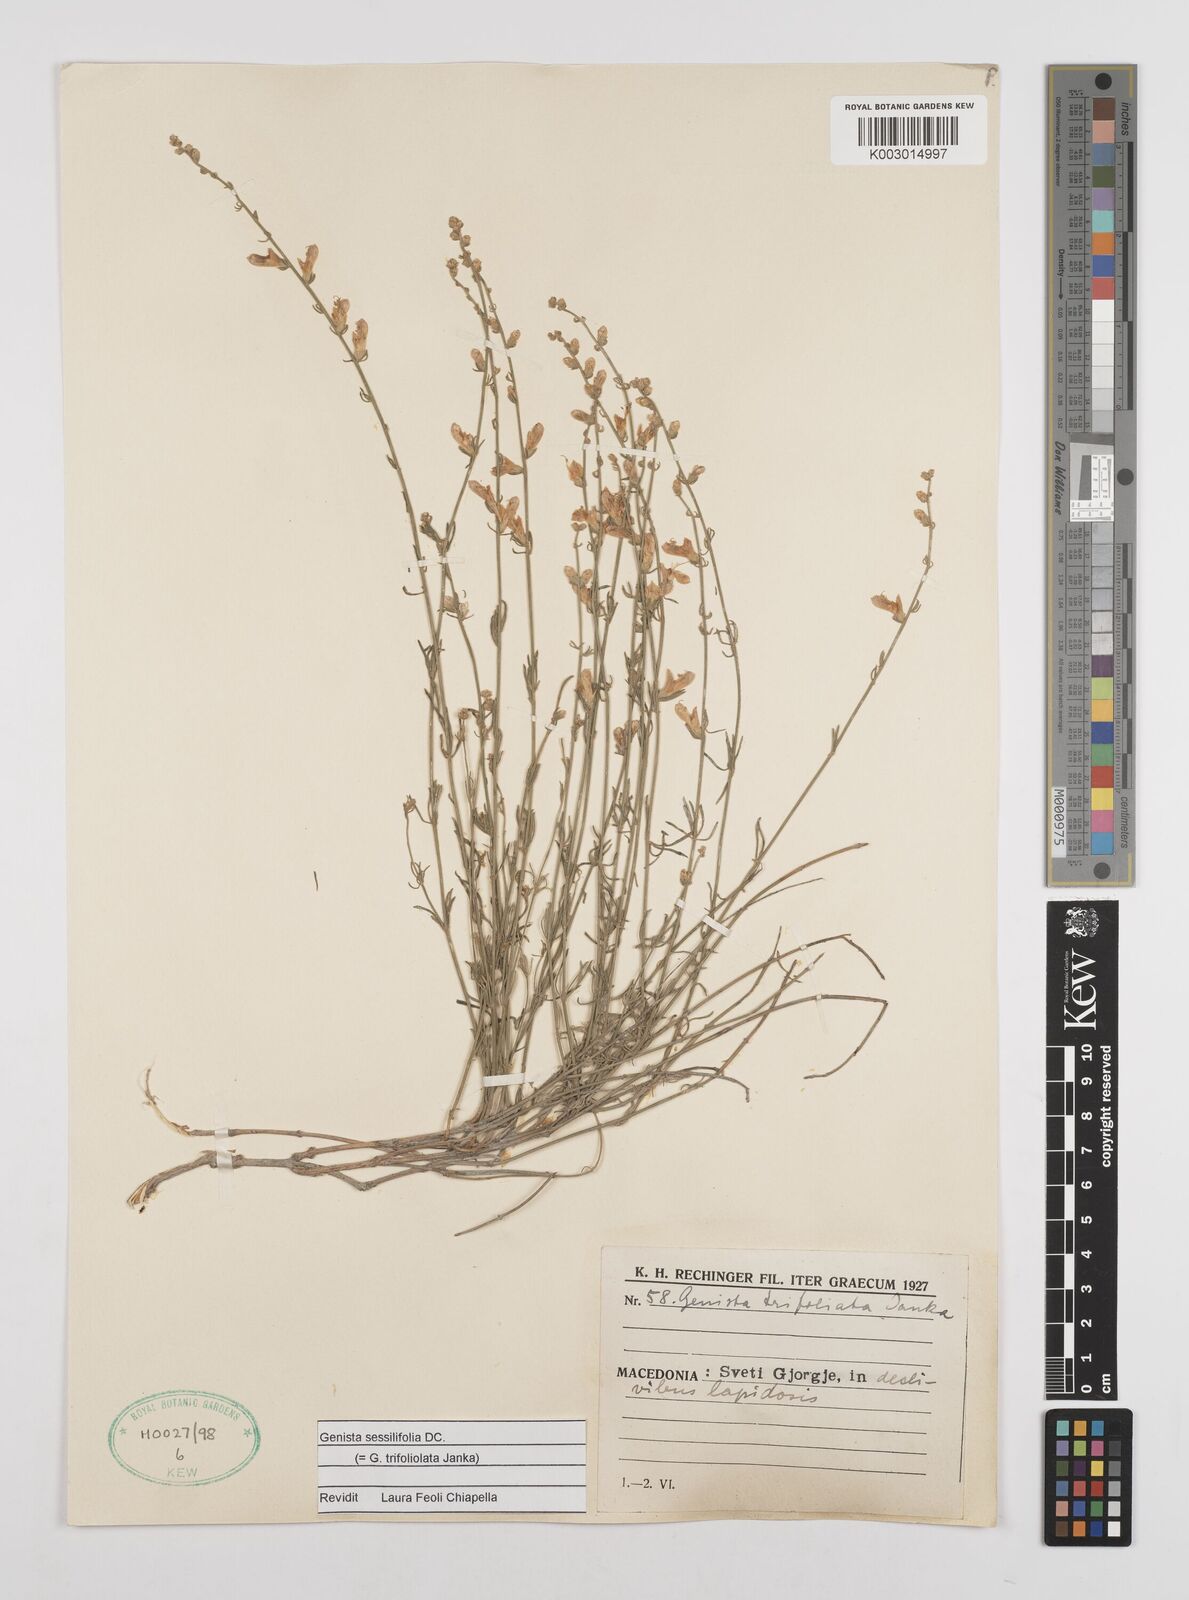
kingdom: Plantae
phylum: Tracheophyta
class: Magnoliopsida
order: Fabales
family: Fabaceae
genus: Genista
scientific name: Genista sessilifolia
